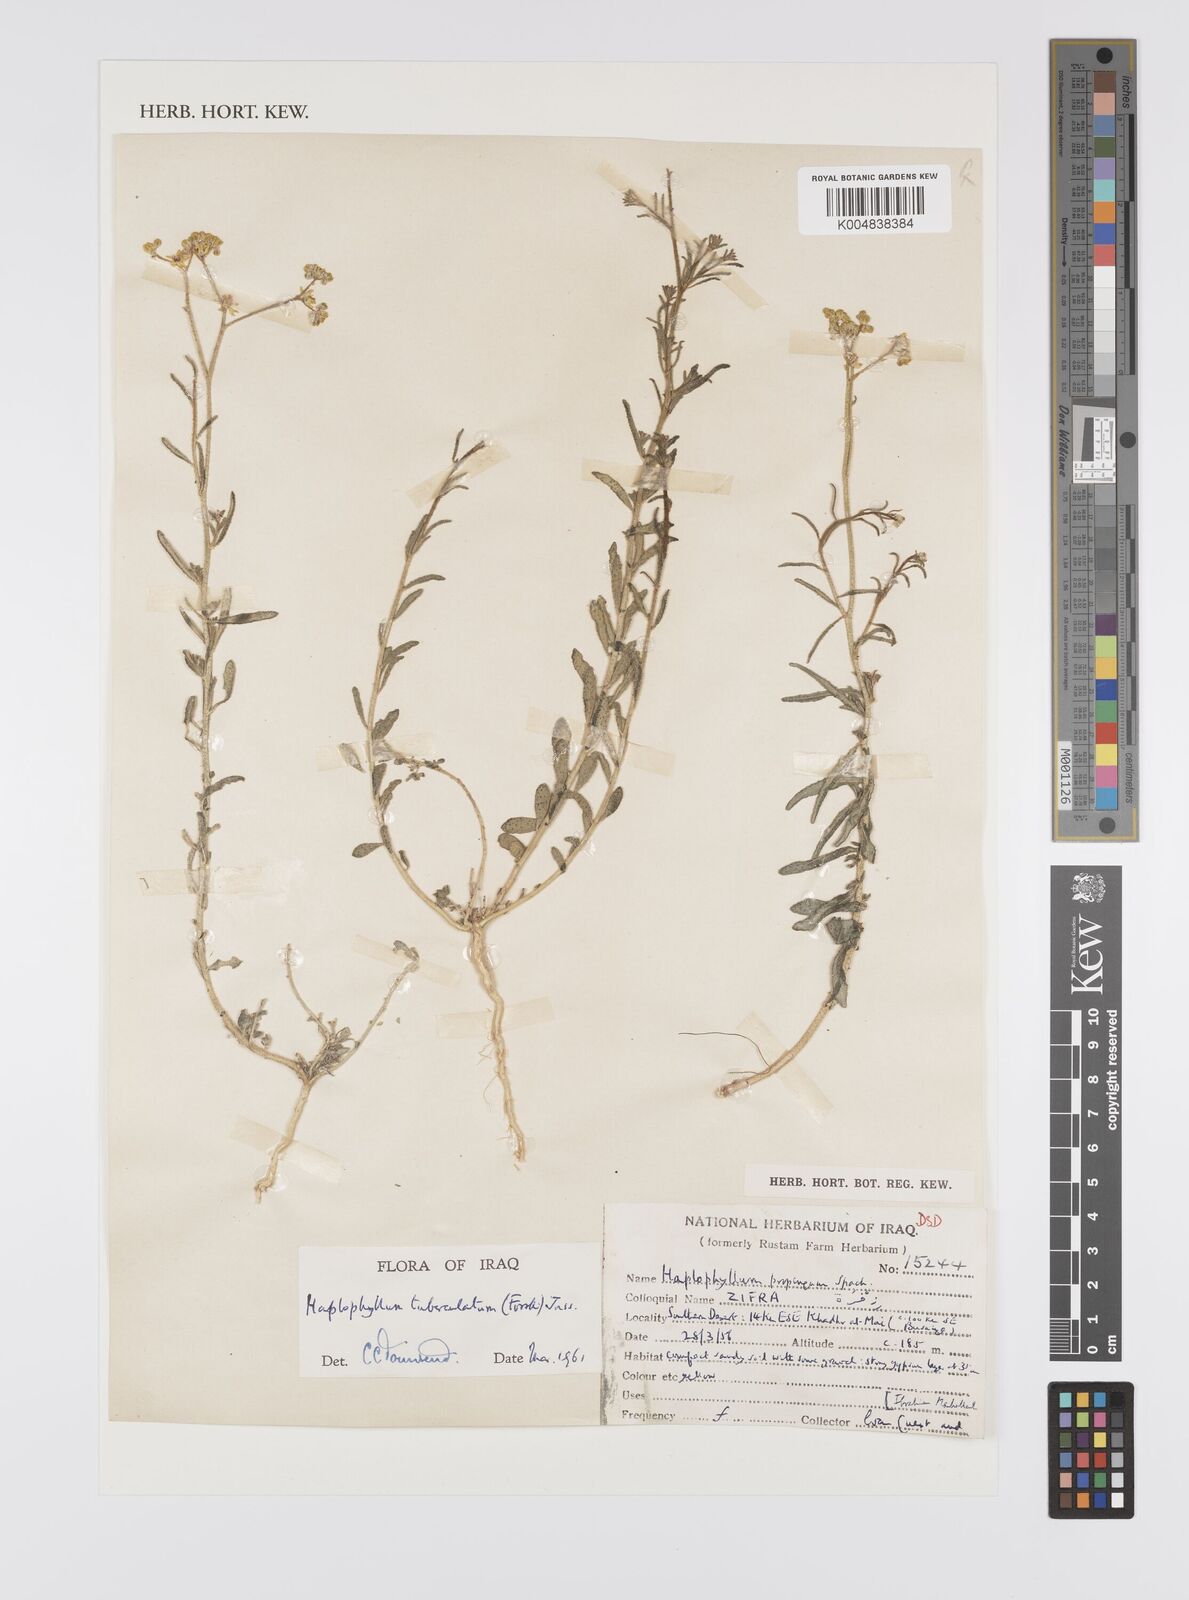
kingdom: Plantae
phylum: Tracheophyta
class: Magnoliopsida
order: Sapindales
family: Rutaceae
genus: Haplophyllum
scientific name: Haplophyllum tuberculatum
